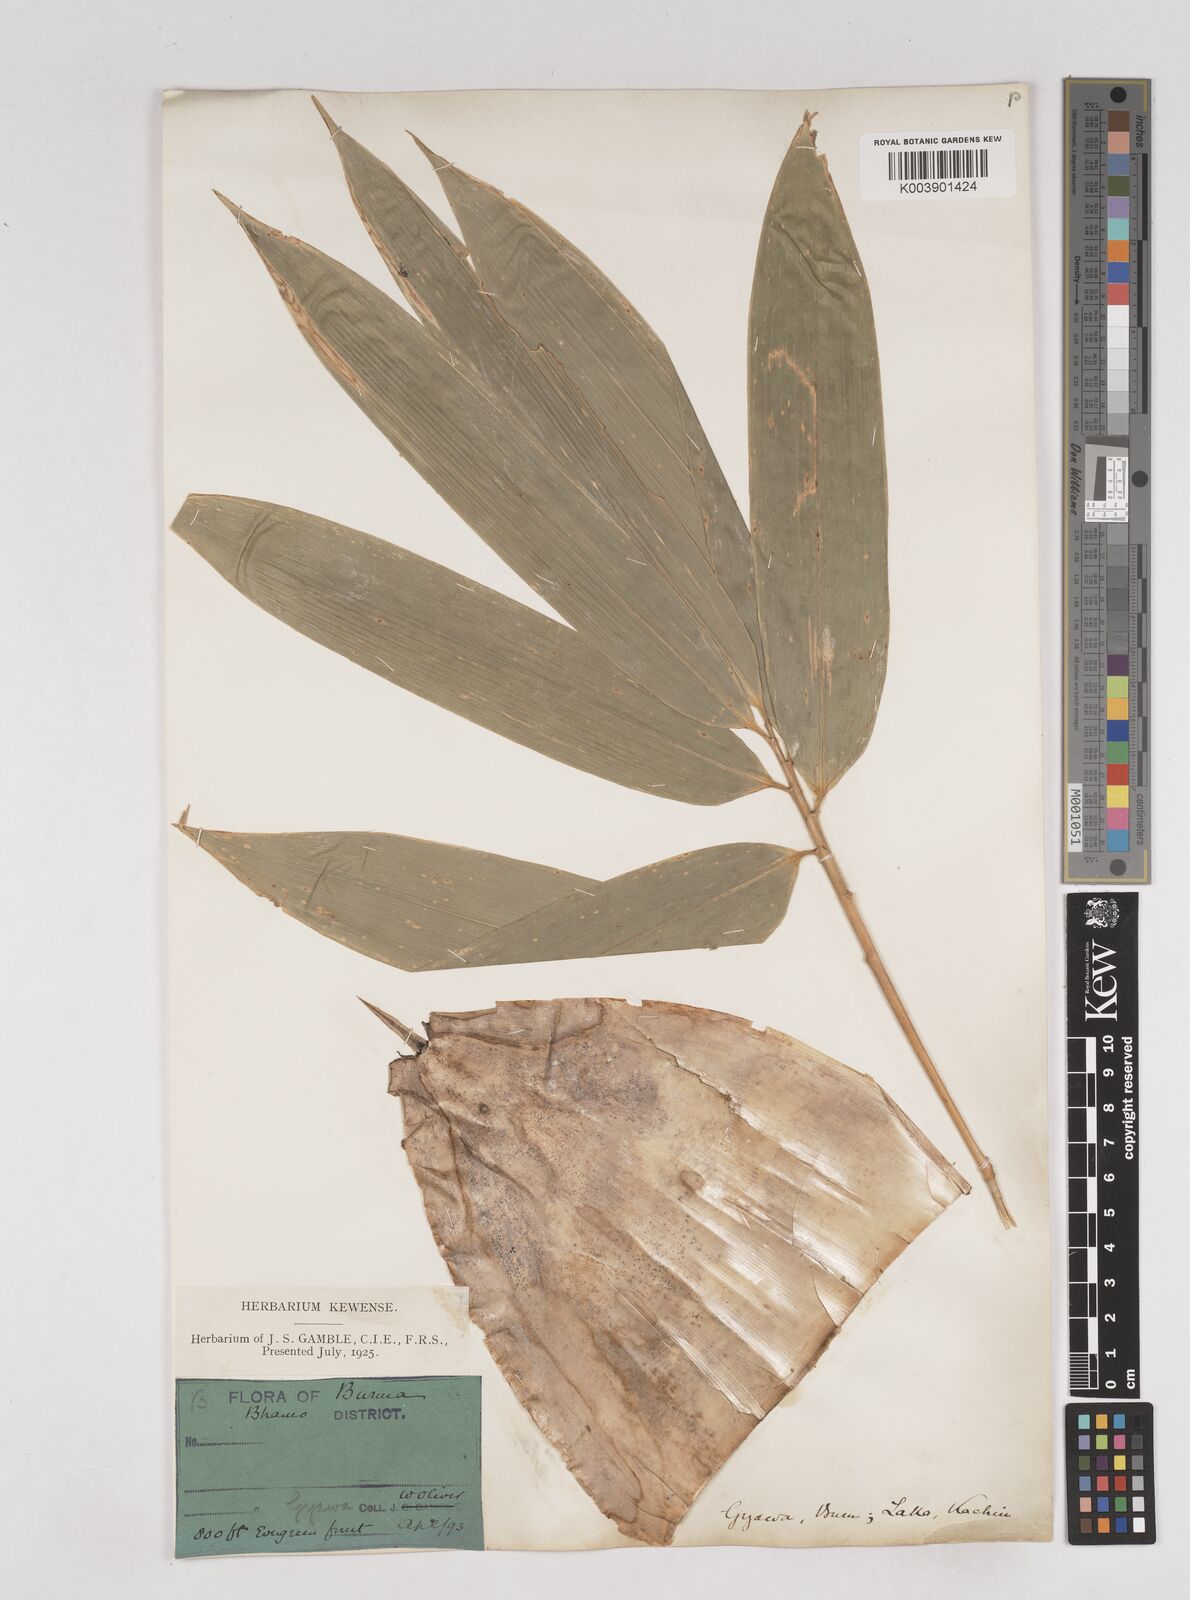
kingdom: Plantae
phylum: Tracheophyta
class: Liliopsida
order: Poales
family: Poaceae
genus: Schizostachyum
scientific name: Schizostachyum tavoyanum
